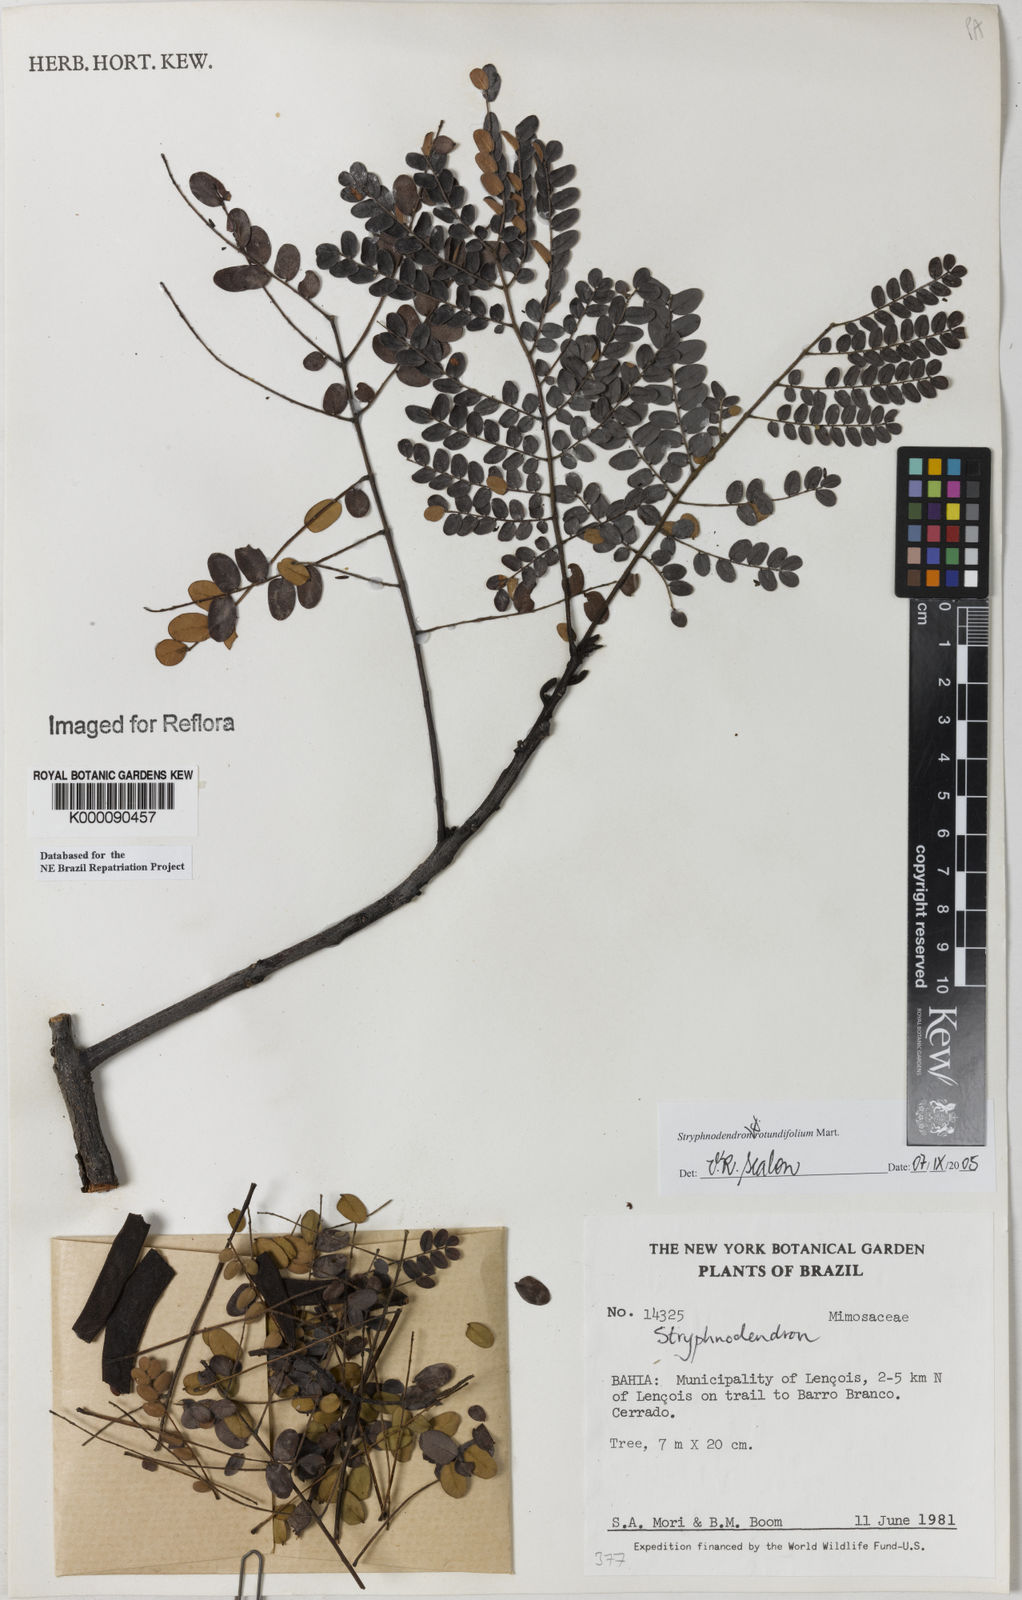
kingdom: Plantae
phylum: Tracheophyta
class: Magnoliopsida
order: Fabales
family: Fabaceae
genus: Stryphnodendron
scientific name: Stryphnodendron
